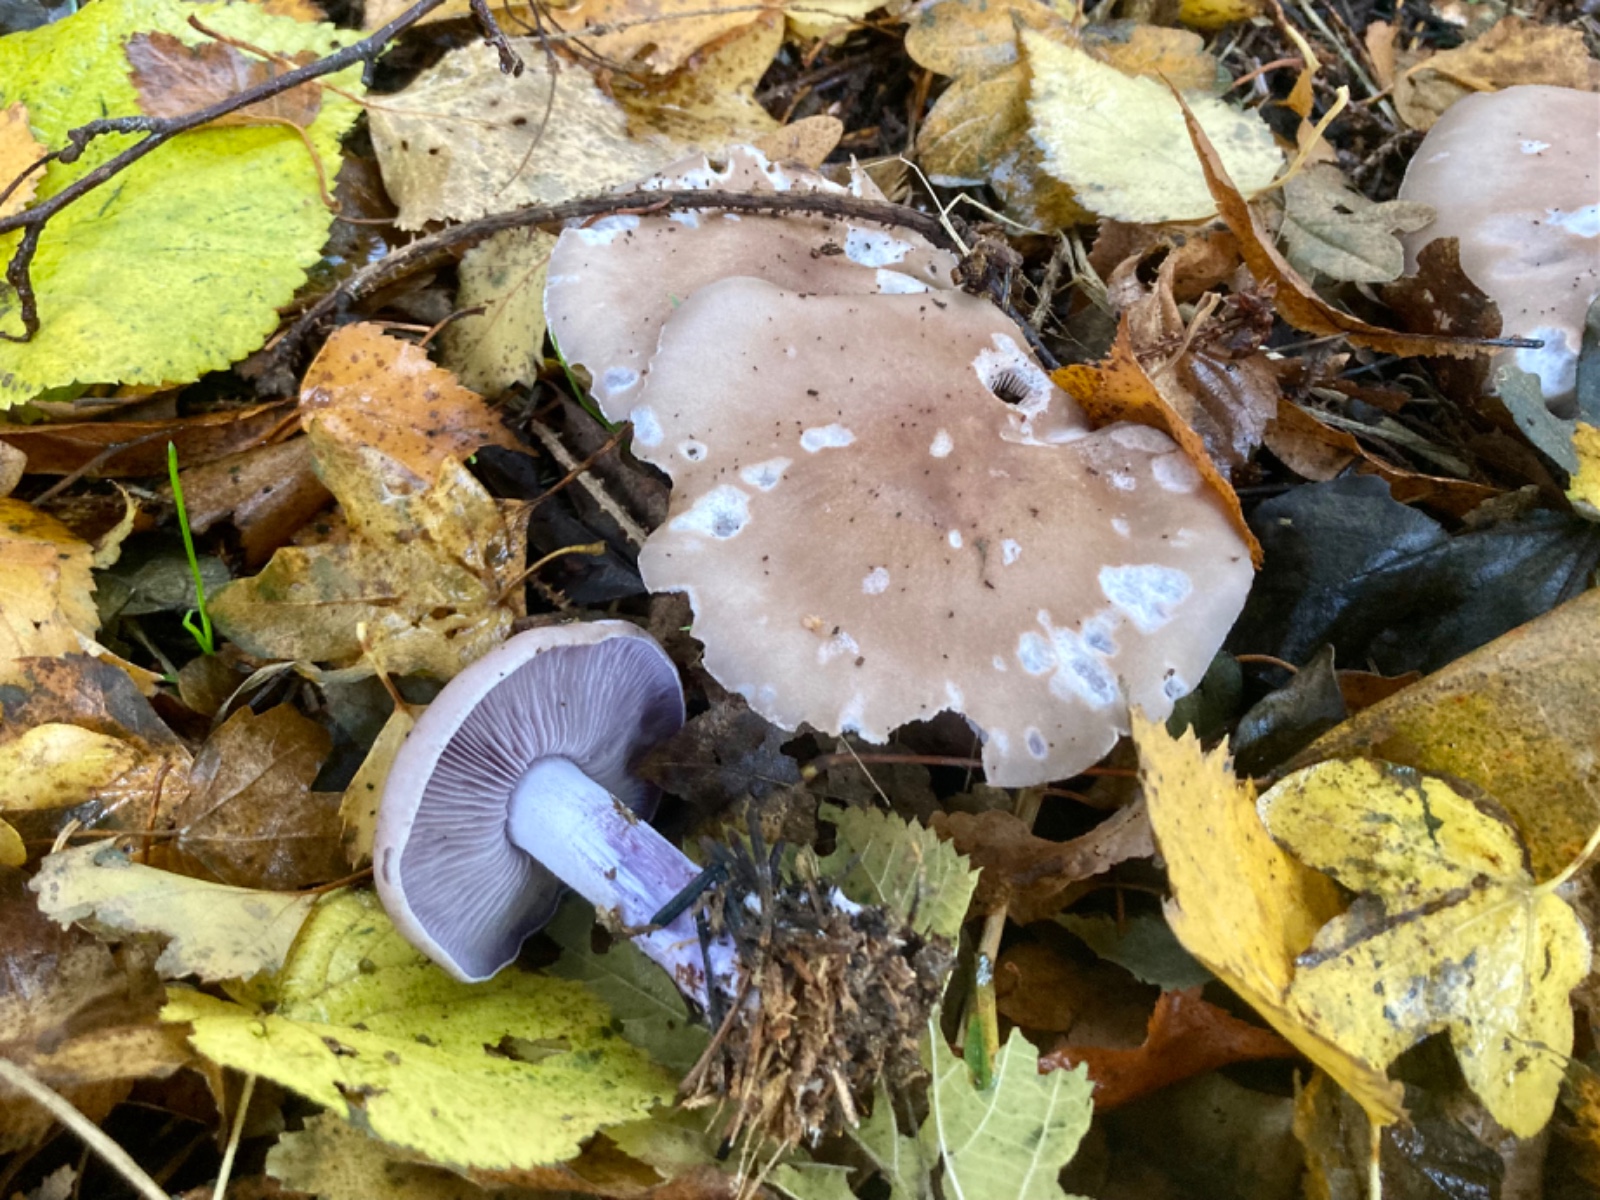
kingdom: Fungi
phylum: Basidiomycota
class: Agaricomycetes
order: Agaricales
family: Tricholomataceae
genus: Lepista
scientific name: Lepista nuda
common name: violet hekseringshat
